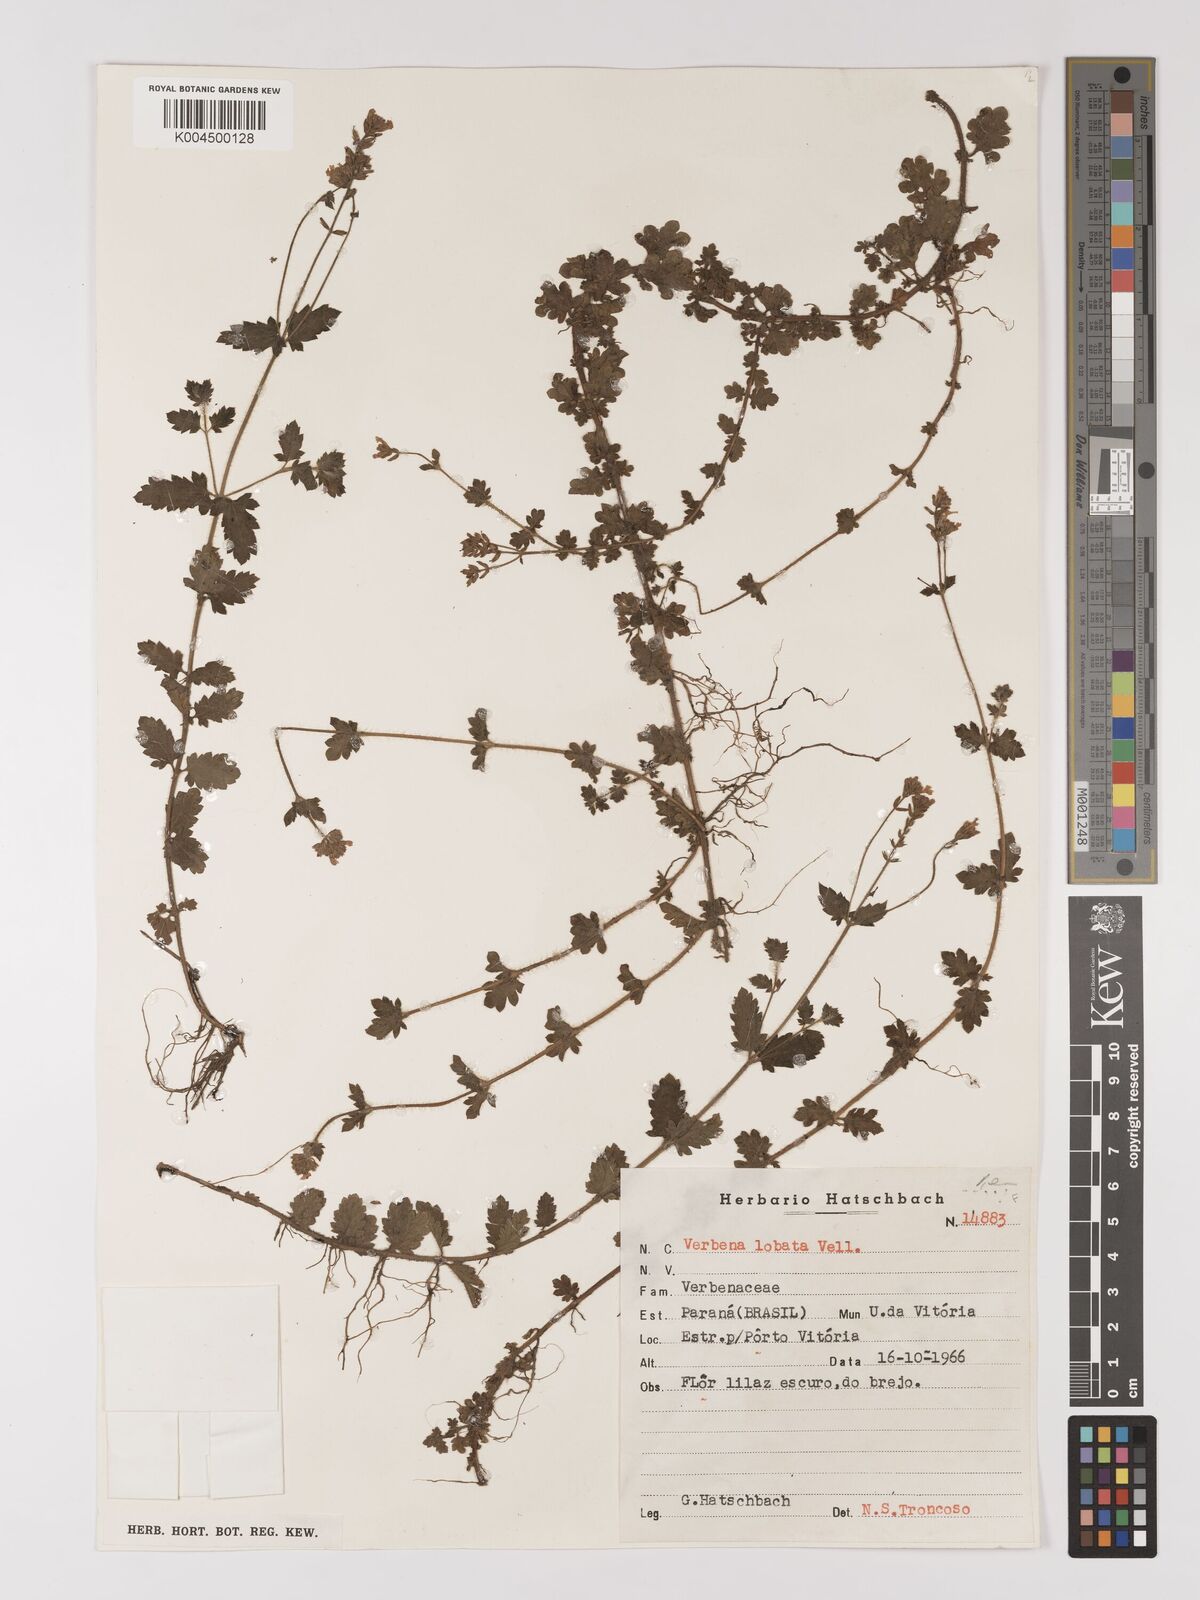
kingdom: Plantae
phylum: Tracheophyta
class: Magnoliopsida
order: Lamiales
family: Verbenaceae
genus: Verbena
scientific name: Verbena lobata
